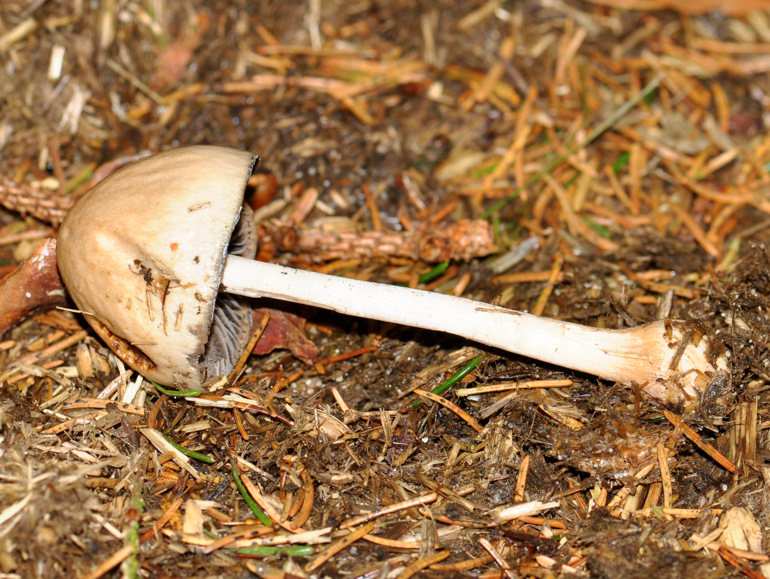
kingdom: Fungi
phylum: Basidiomycota
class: Agaricomycetes
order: Agaricales
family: Bolbitiaceae
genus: Panaeolus
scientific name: Panaeolus semiovatus
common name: ring-glanshat
